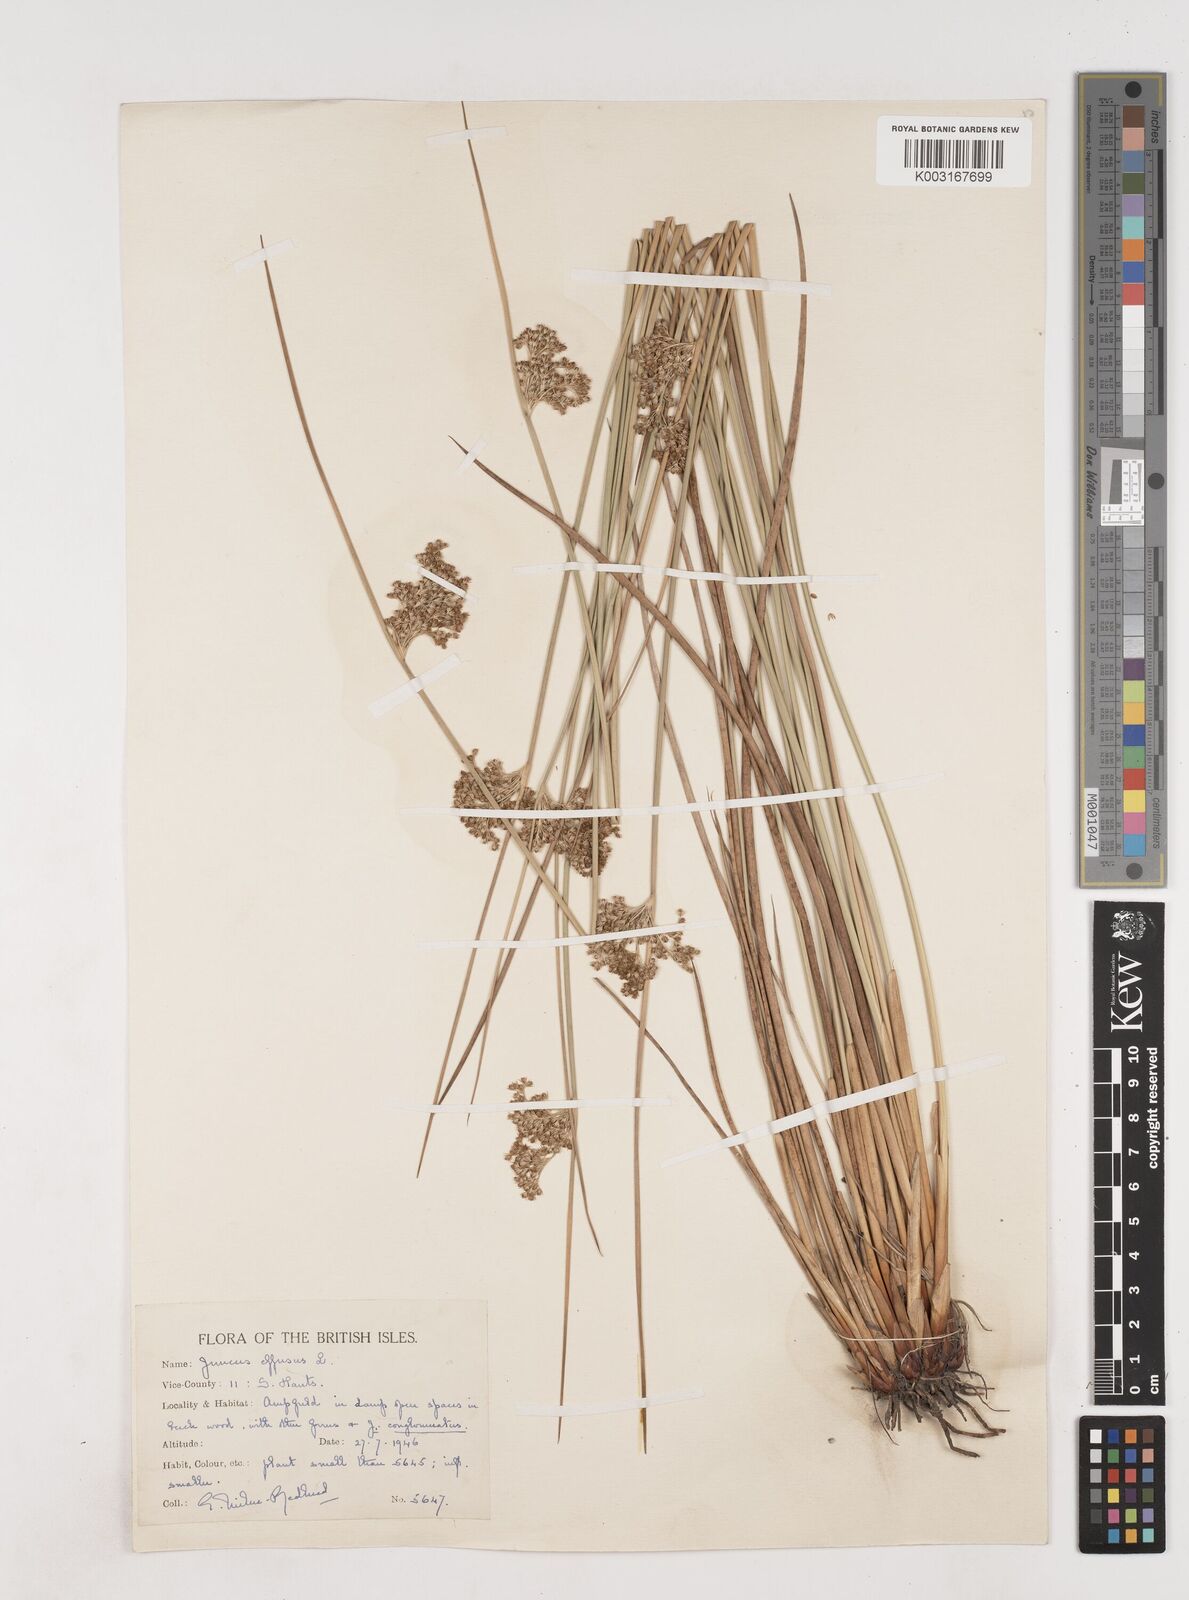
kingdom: Plantae
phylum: Tracheophyta
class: Liliopsida
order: Poales
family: Juncaceae
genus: Juncus
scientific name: Juncus effusus
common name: Soft rush
